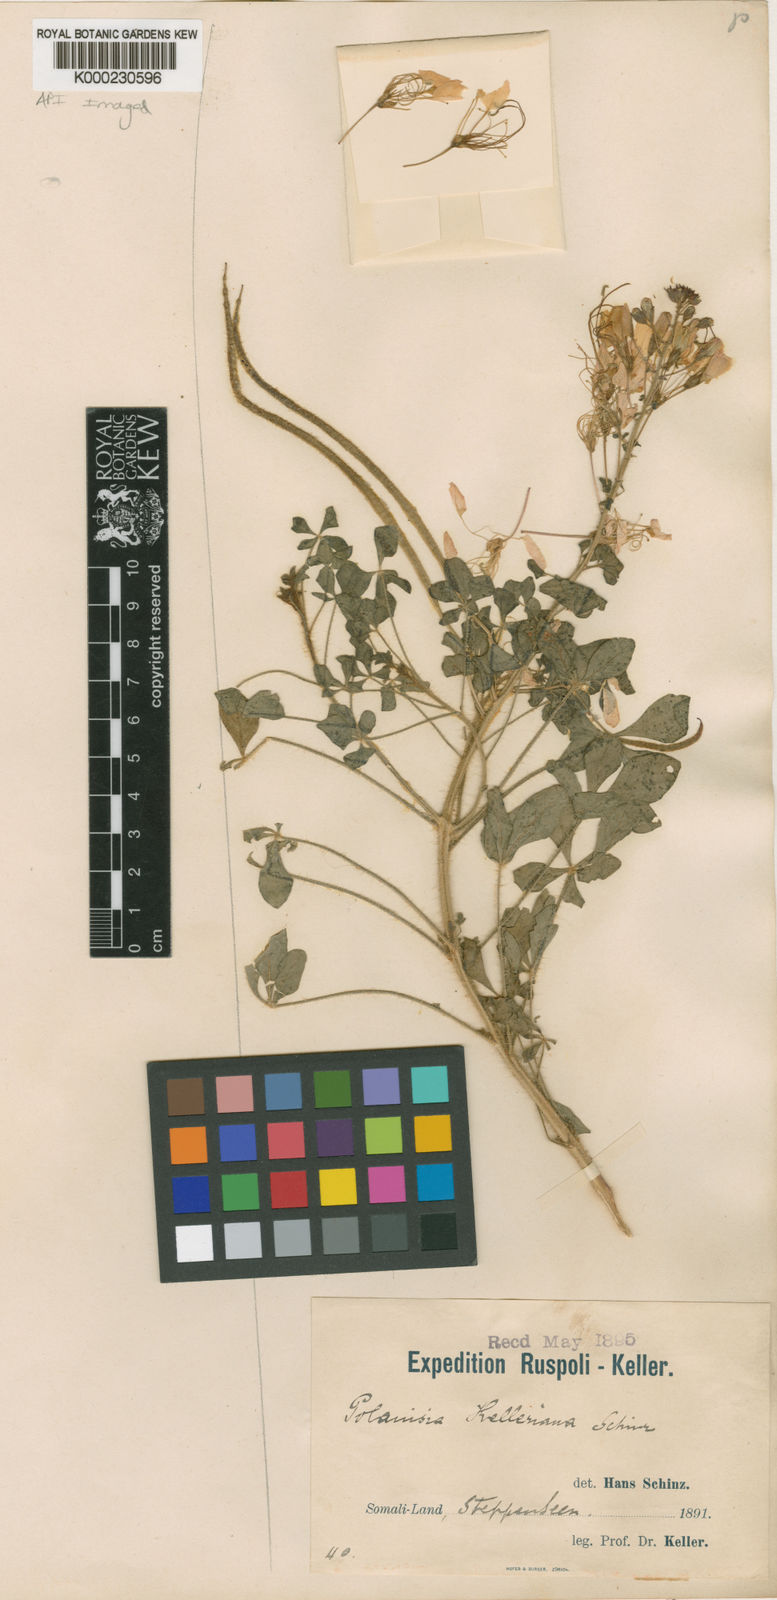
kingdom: Plantae
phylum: Tracheophyta
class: Magnoliopsida
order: Brassicales
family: Cleomaceae
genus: Sieruela
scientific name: Sieruela kelleriana
